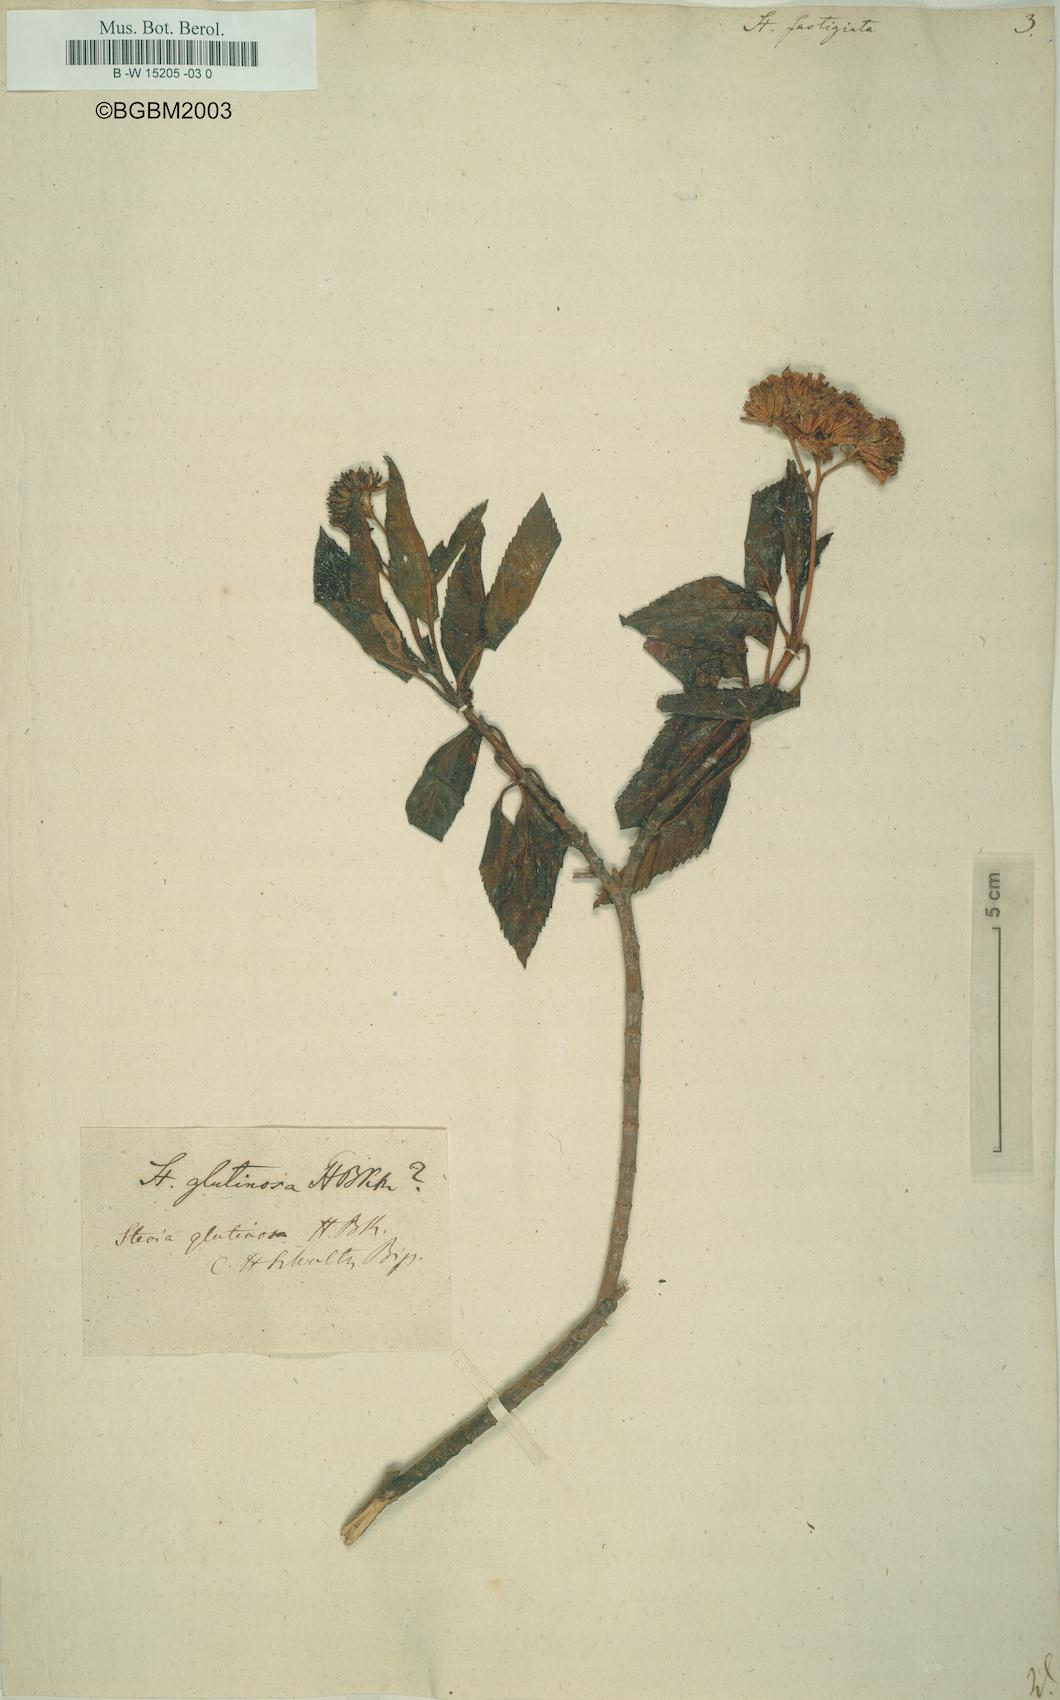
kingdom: Plantae
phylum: Tracheophyta
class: Magnoliopsida
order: Asterales
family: Asteraceae
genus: Stevia
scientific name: Stevia lucida
